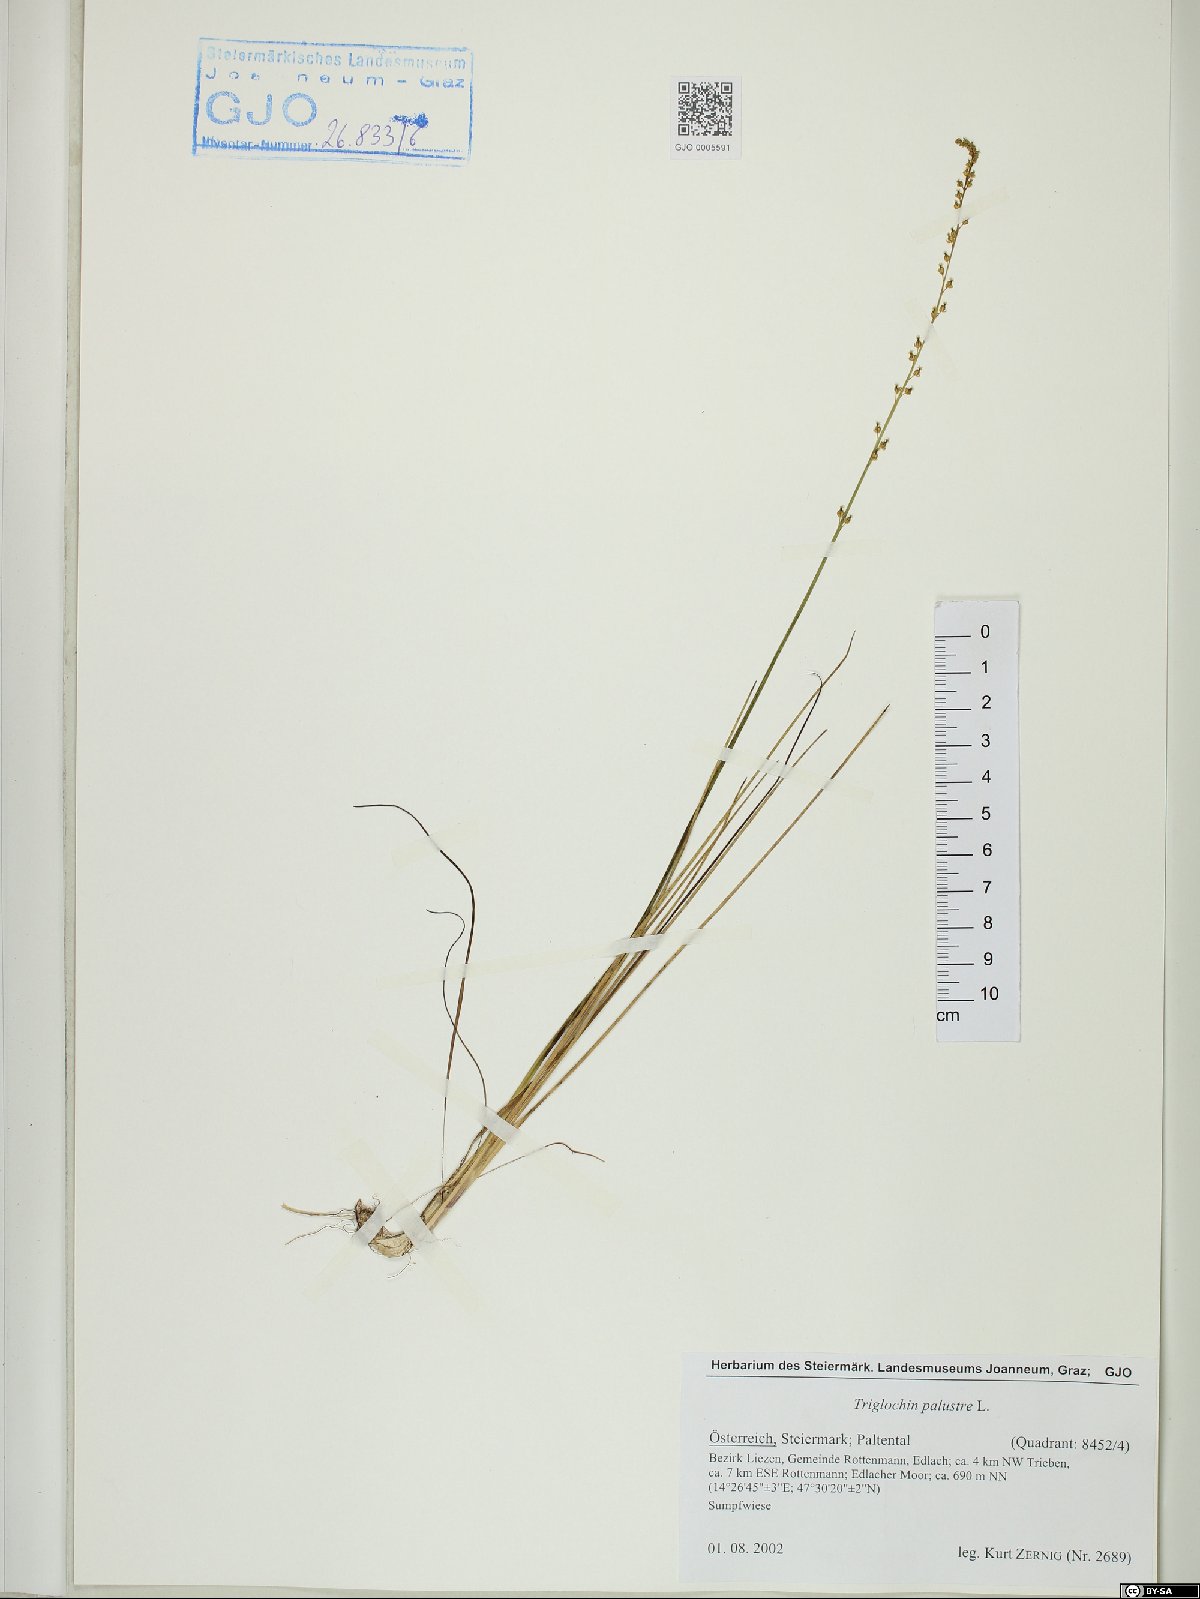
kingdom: Plantae
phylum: Tracheophyta
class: Liliopsida
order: Alismatales
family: Juncaginaceae
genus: Triglochin
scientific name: Triglochin palustris
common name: Marsh arrowgrass
